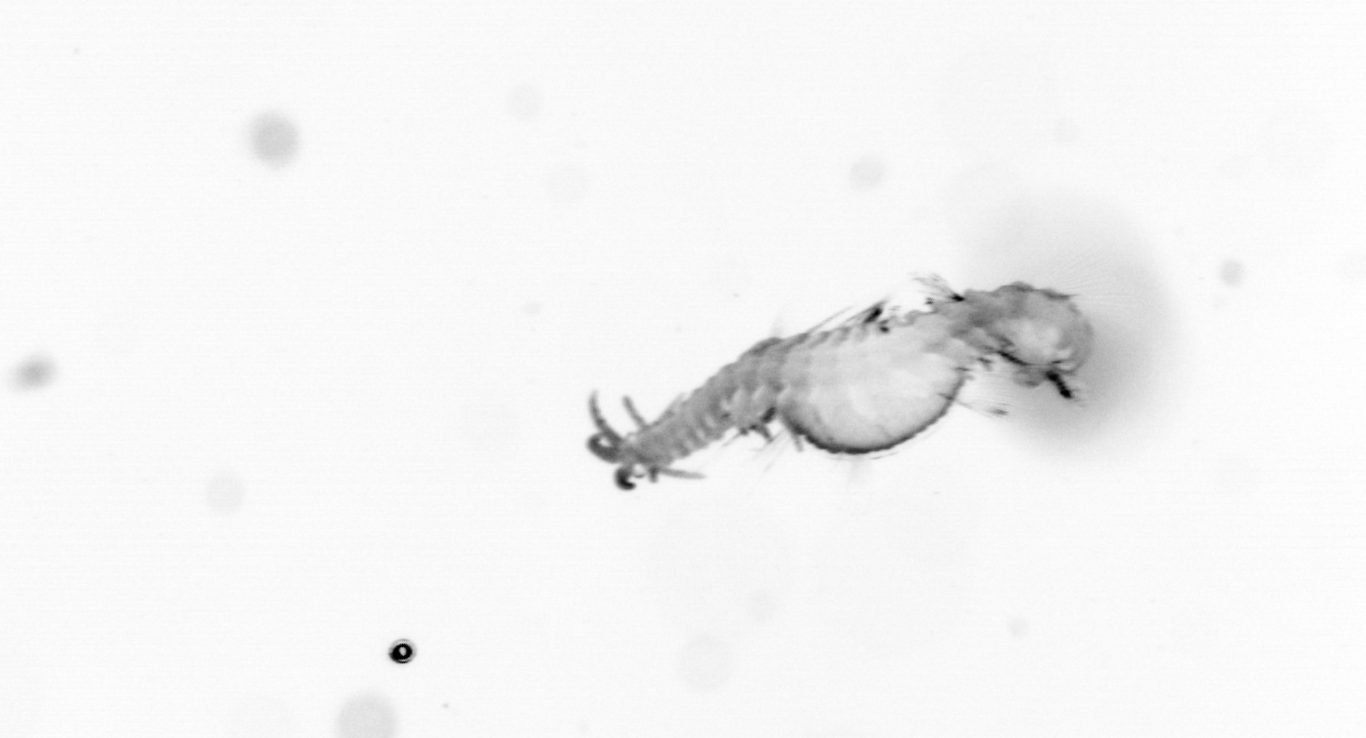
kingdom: Animalia
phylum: Annelida
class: Polychaeta
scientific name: Polychaeta
